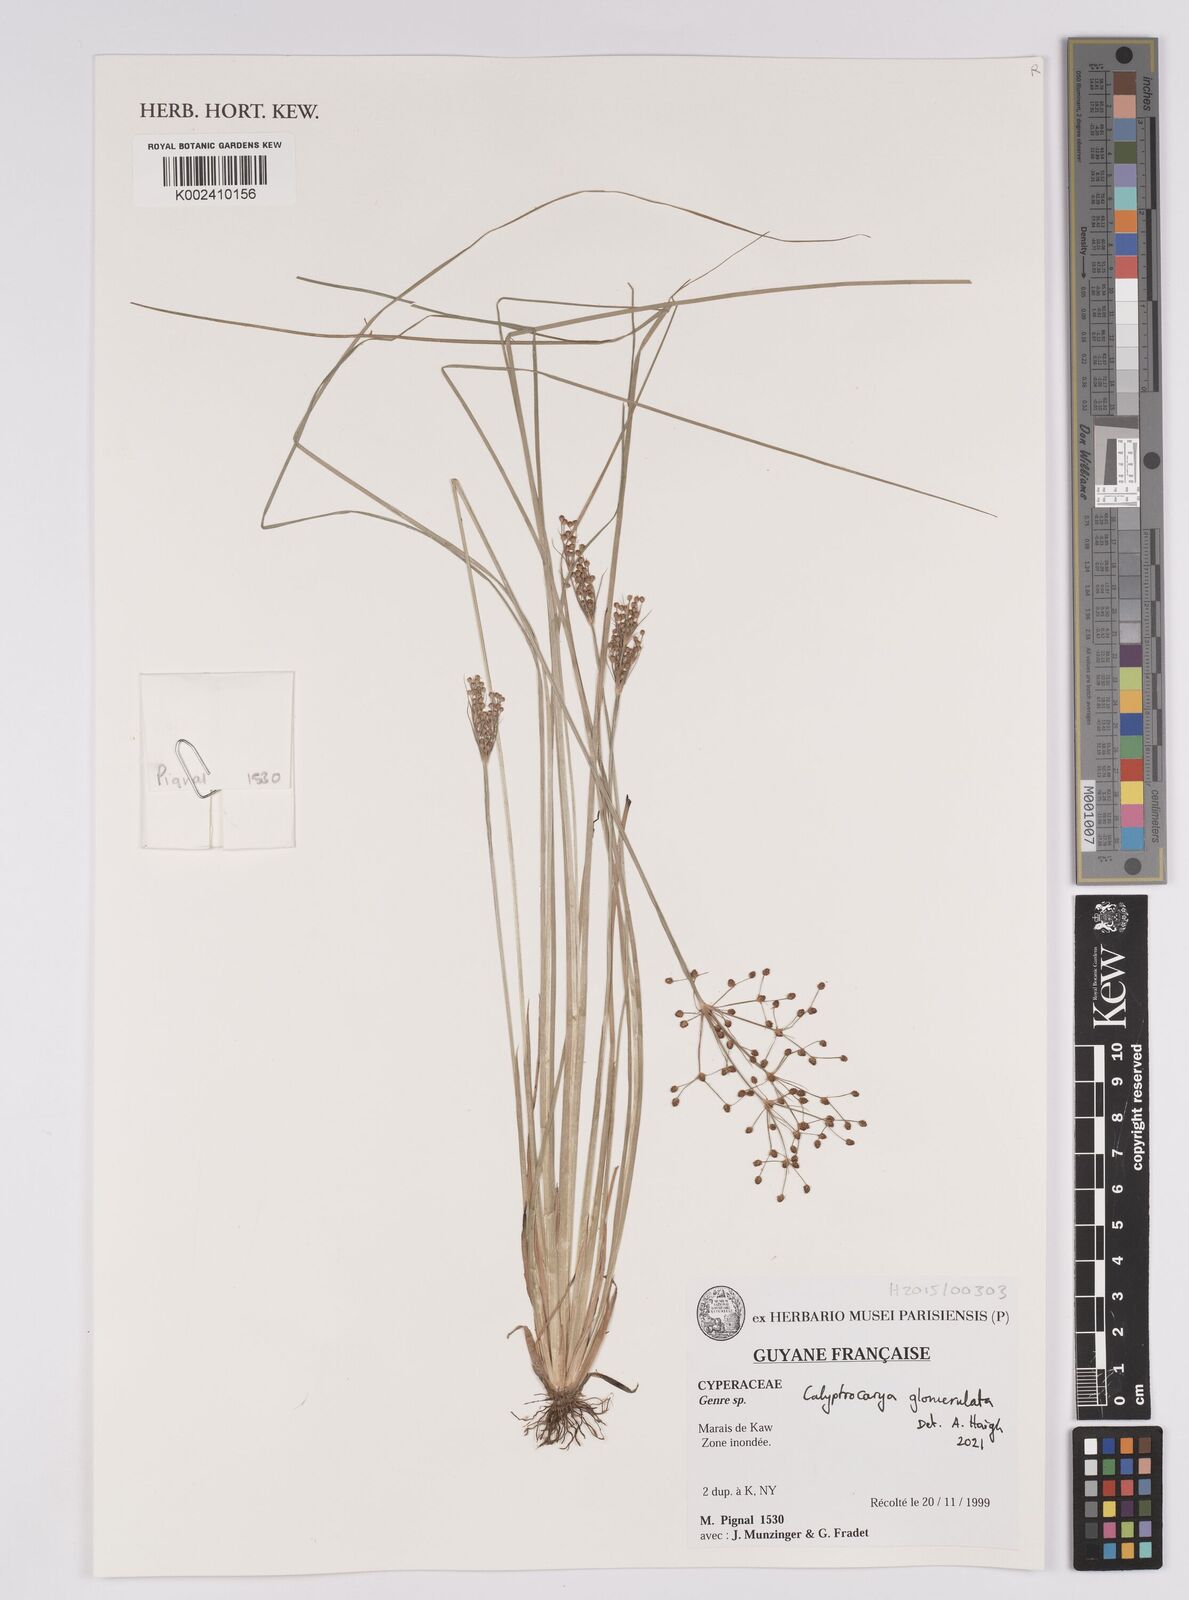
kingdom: Plantae
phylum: Tracheophyta
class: Liliopsida
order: Poales
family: Cyperaceae
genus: Calyptrocarya
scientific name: Calyptrocarya glomerulata
